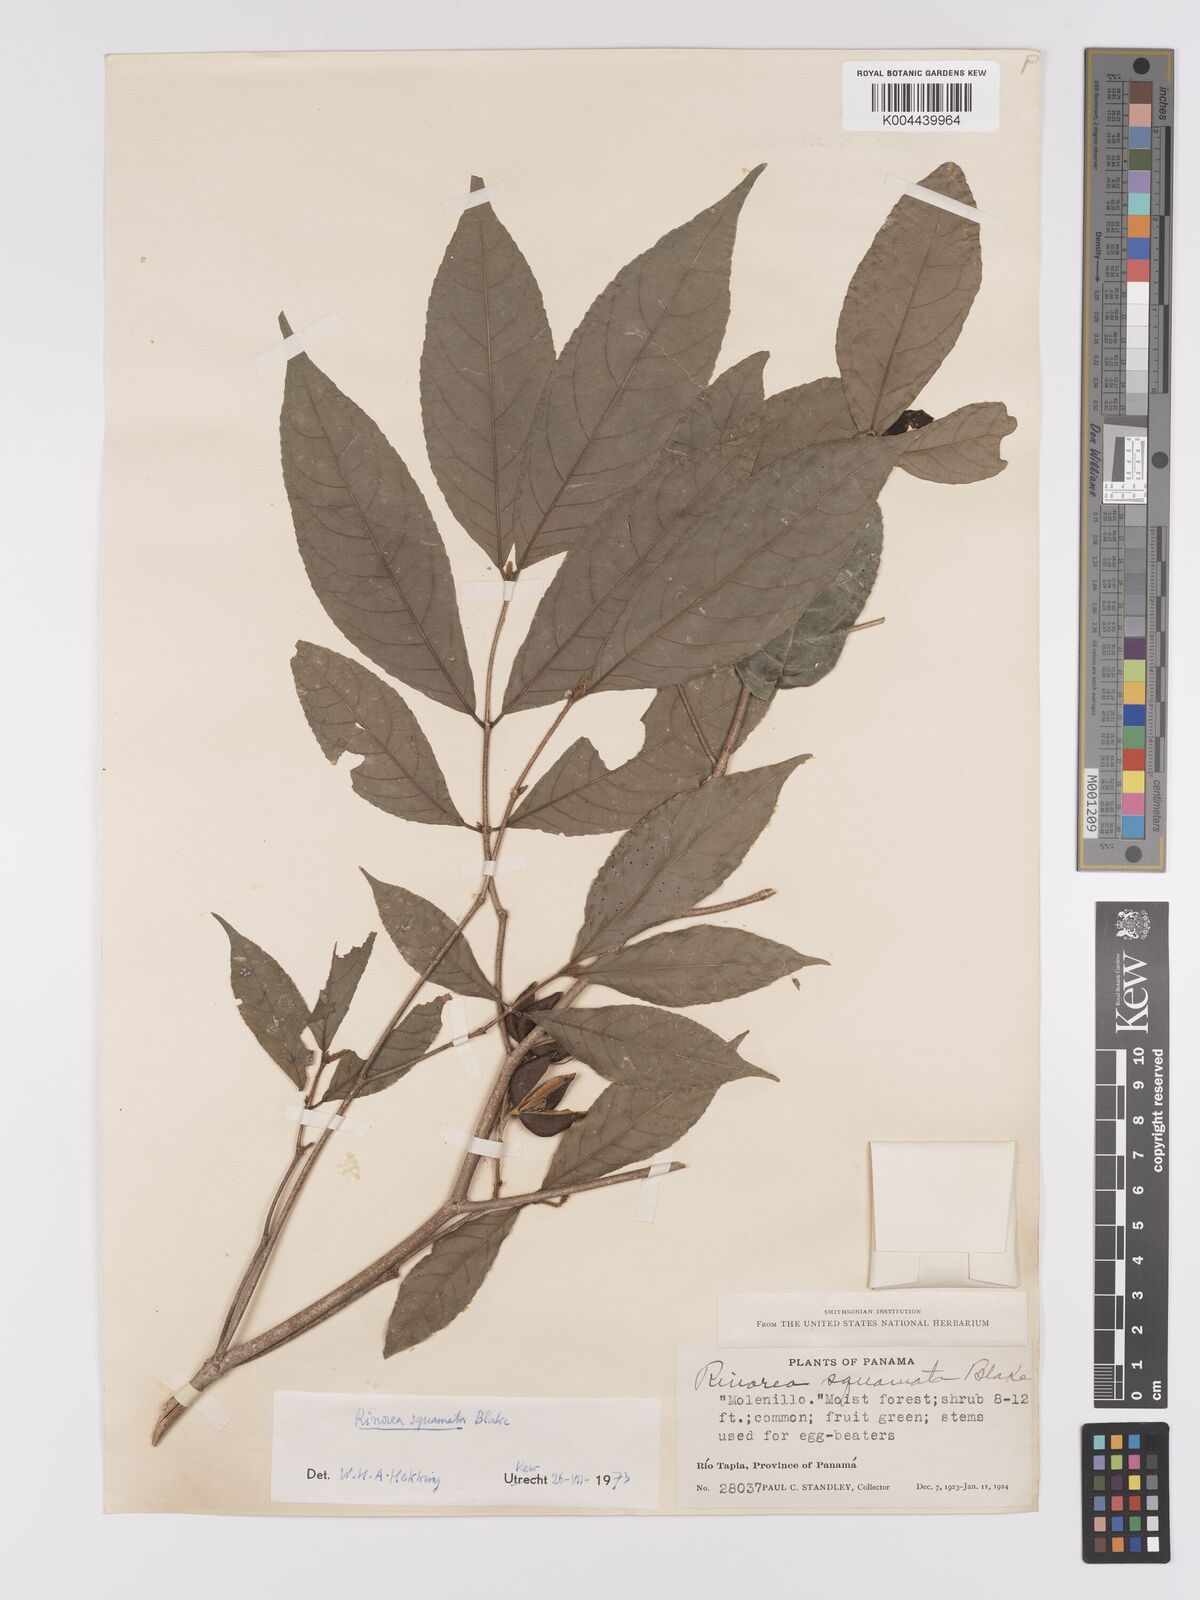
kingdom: Plantae
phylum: Tracheophyta
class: Magnoliopsida
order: Malpighiales
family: Violaceae
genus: Rinorea
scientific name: Rinorea squamata
